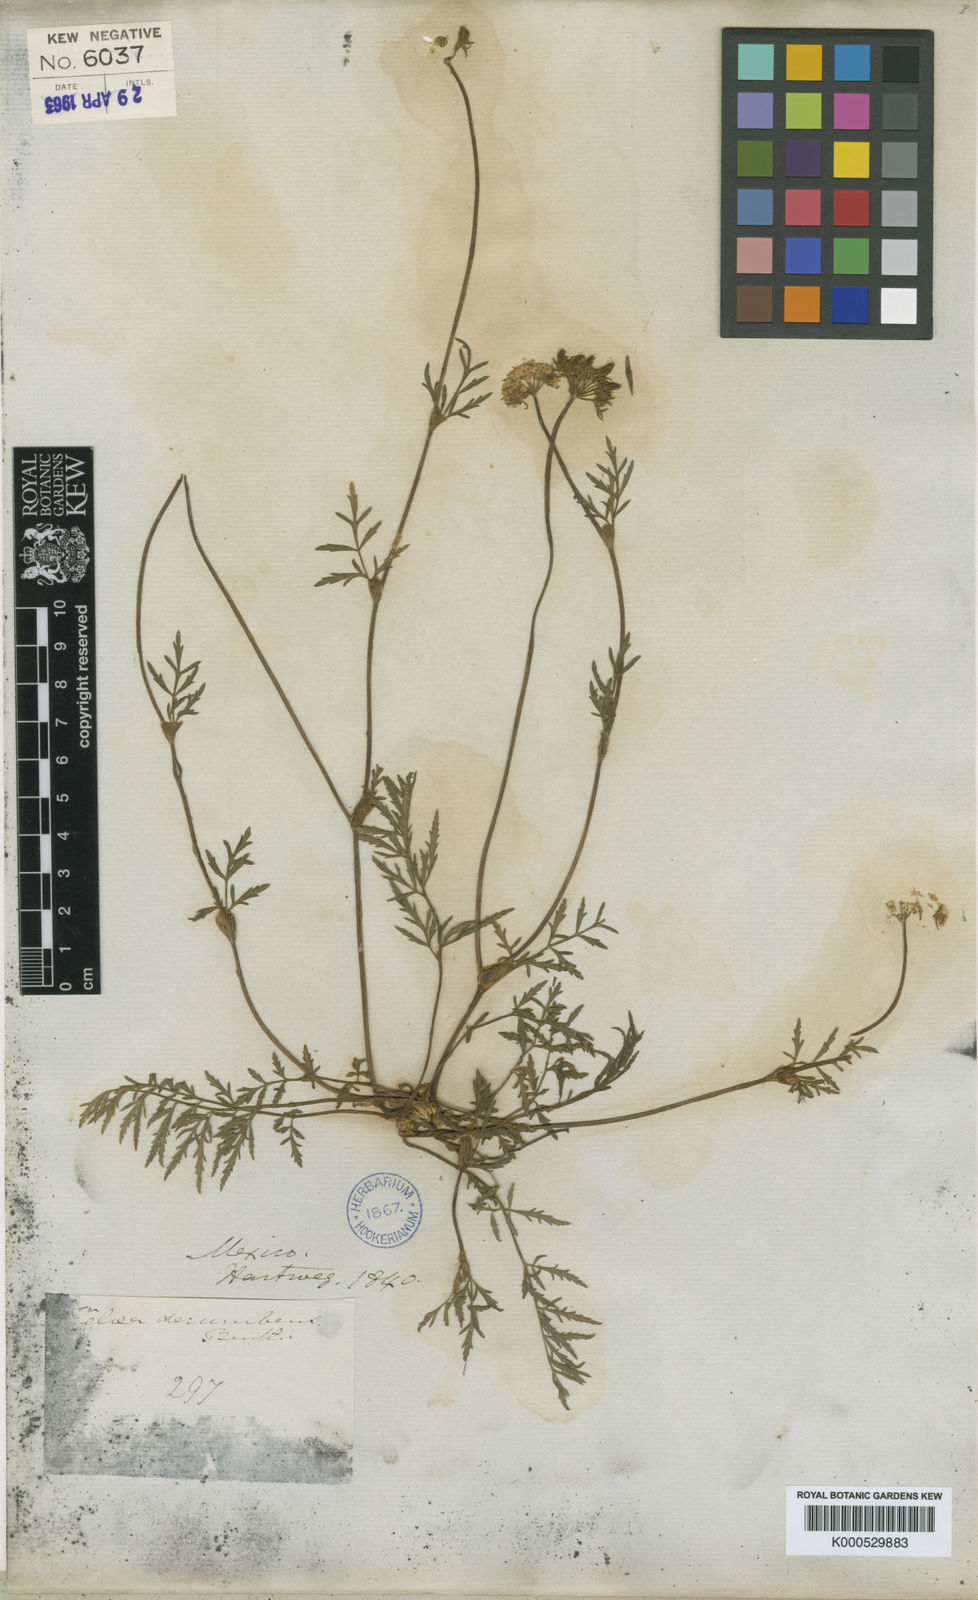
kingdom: Plantae
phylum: Tracheophyta
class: Magnoliopsida
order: Apiales
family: Apiaceae
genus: Tauschia
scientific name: Tauschia
